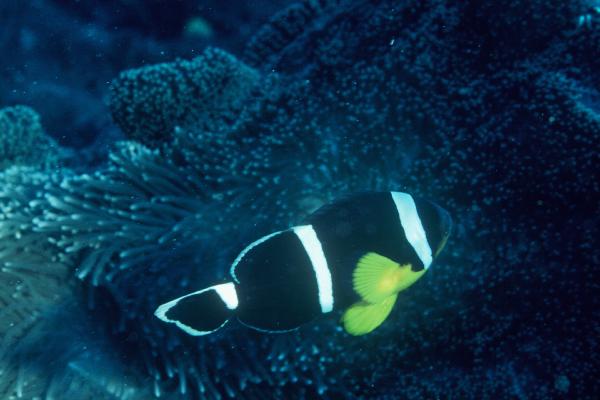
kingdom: Animalia
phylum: Chordata
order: Perciformes
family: Pomacentridae
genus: Amphiprion
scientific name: Amphiprion chrysogaster
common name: Mauritian anemonefish
